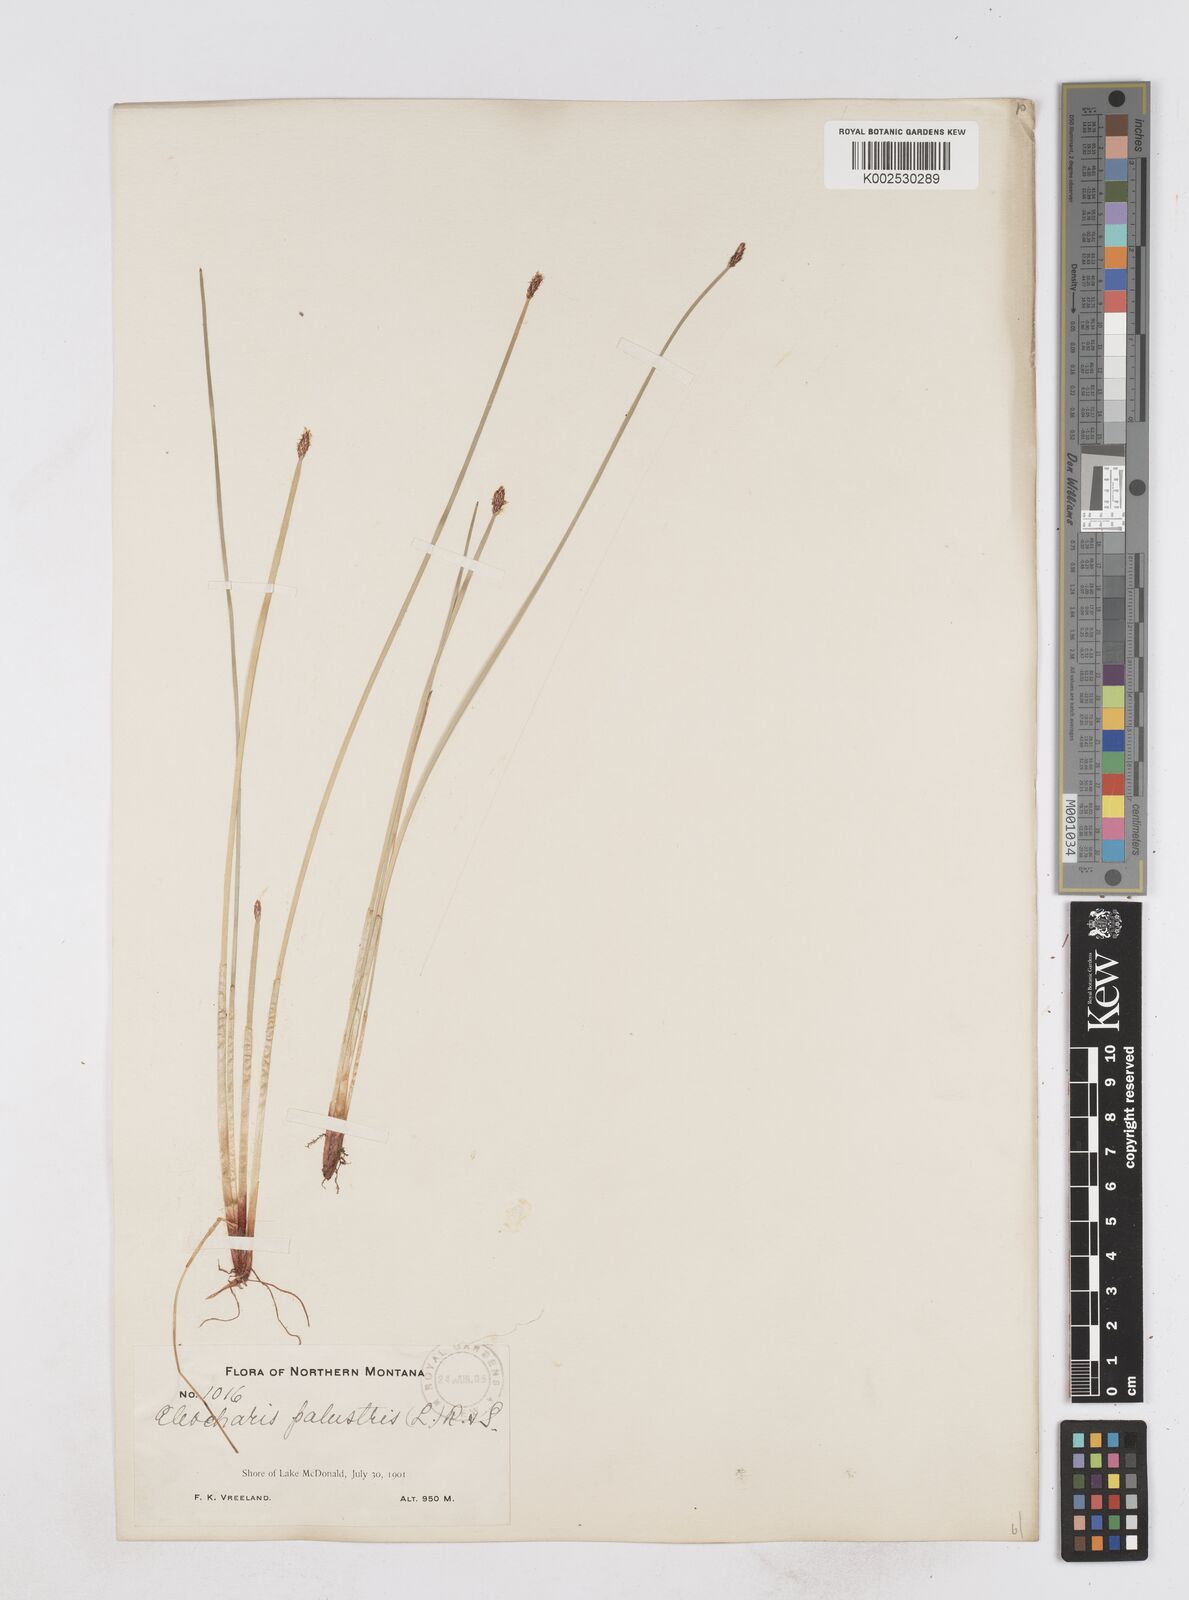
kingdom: Plantae
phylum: Tracheophyta
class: Liliopsida
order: Poales
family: Cyperaceae
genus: Eleocharis
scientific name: Eleocharis montana
